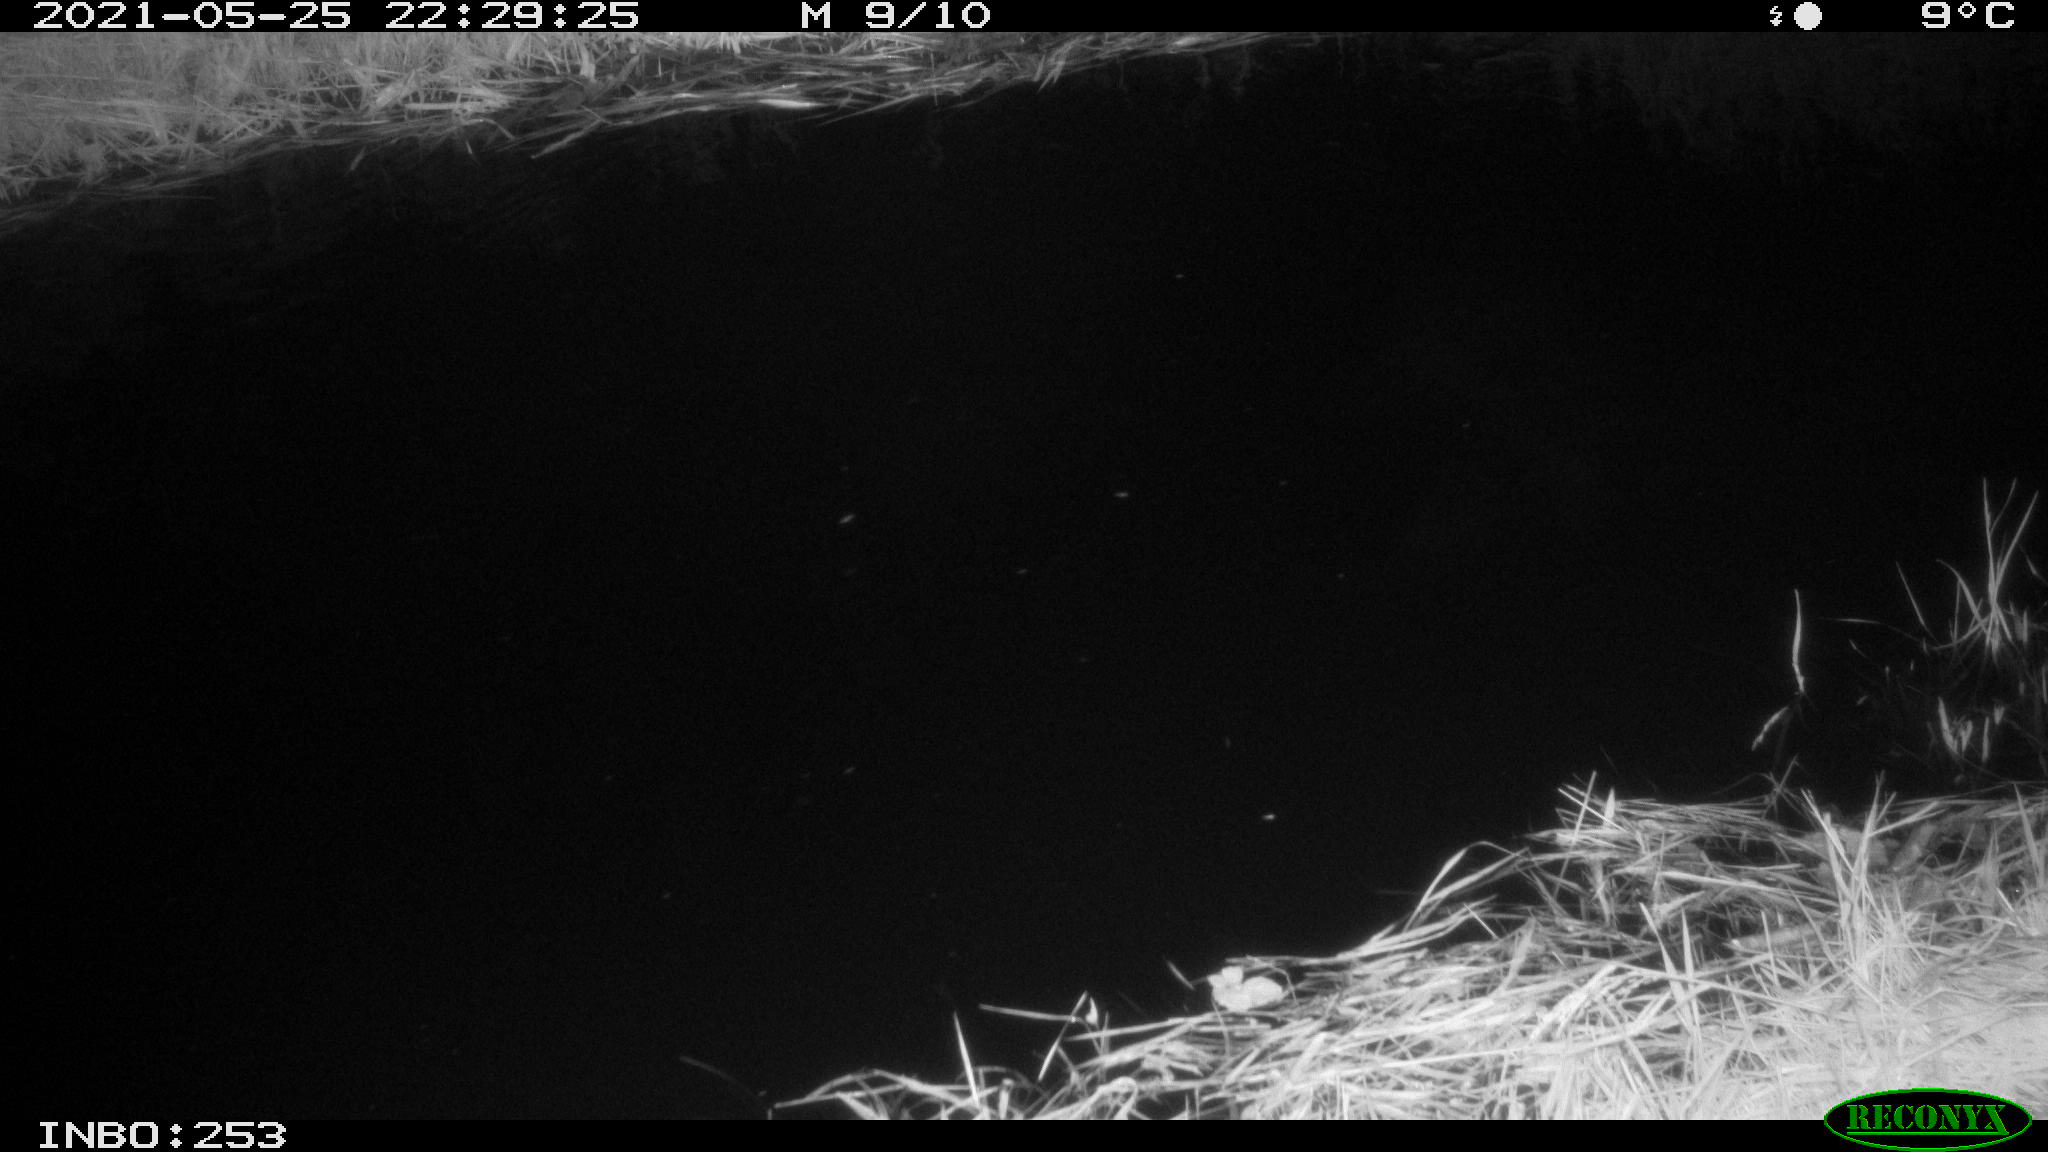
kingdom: Animalia
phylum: Chordata
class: Aves
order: Anseriformes
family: Anatidae
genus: Anas
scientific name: Anas
